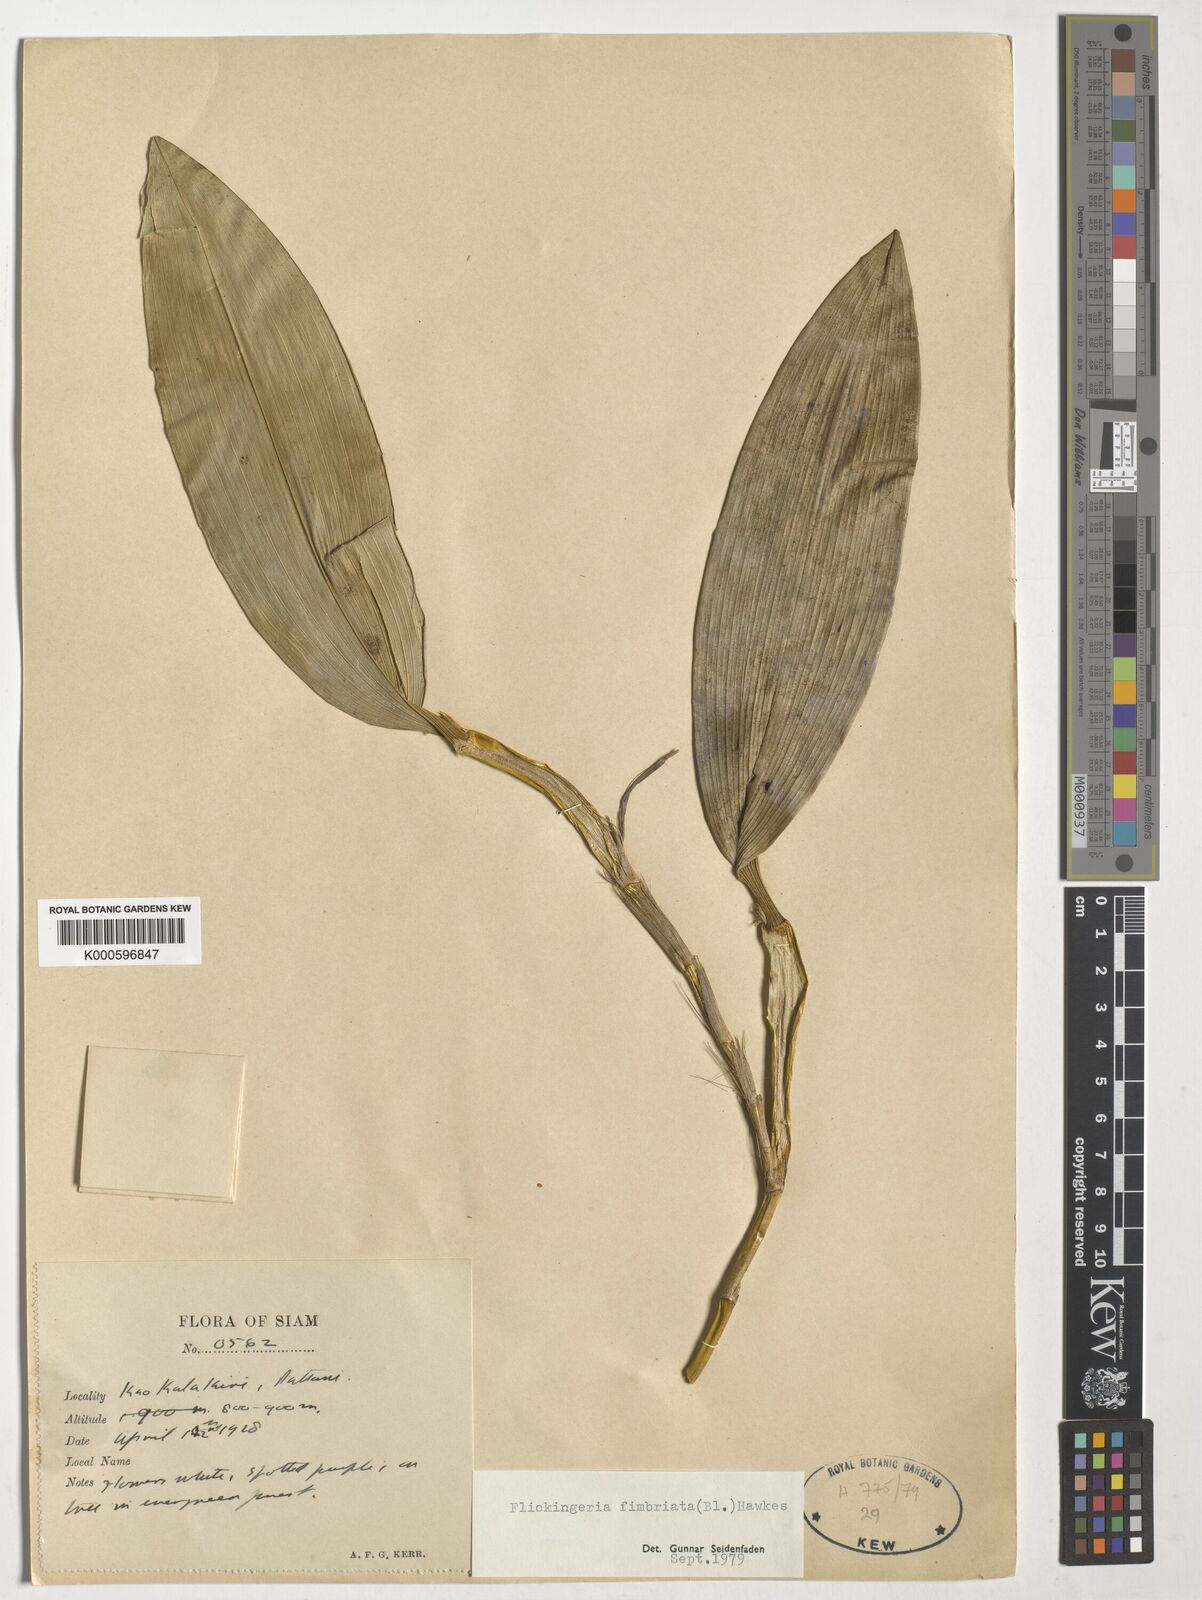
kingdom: Plantae
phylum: Tracheophyta
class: Liliopsida
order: Asparagales
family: Orchidaceae
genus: Dendrobium
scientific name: Dendrobium plicatile
